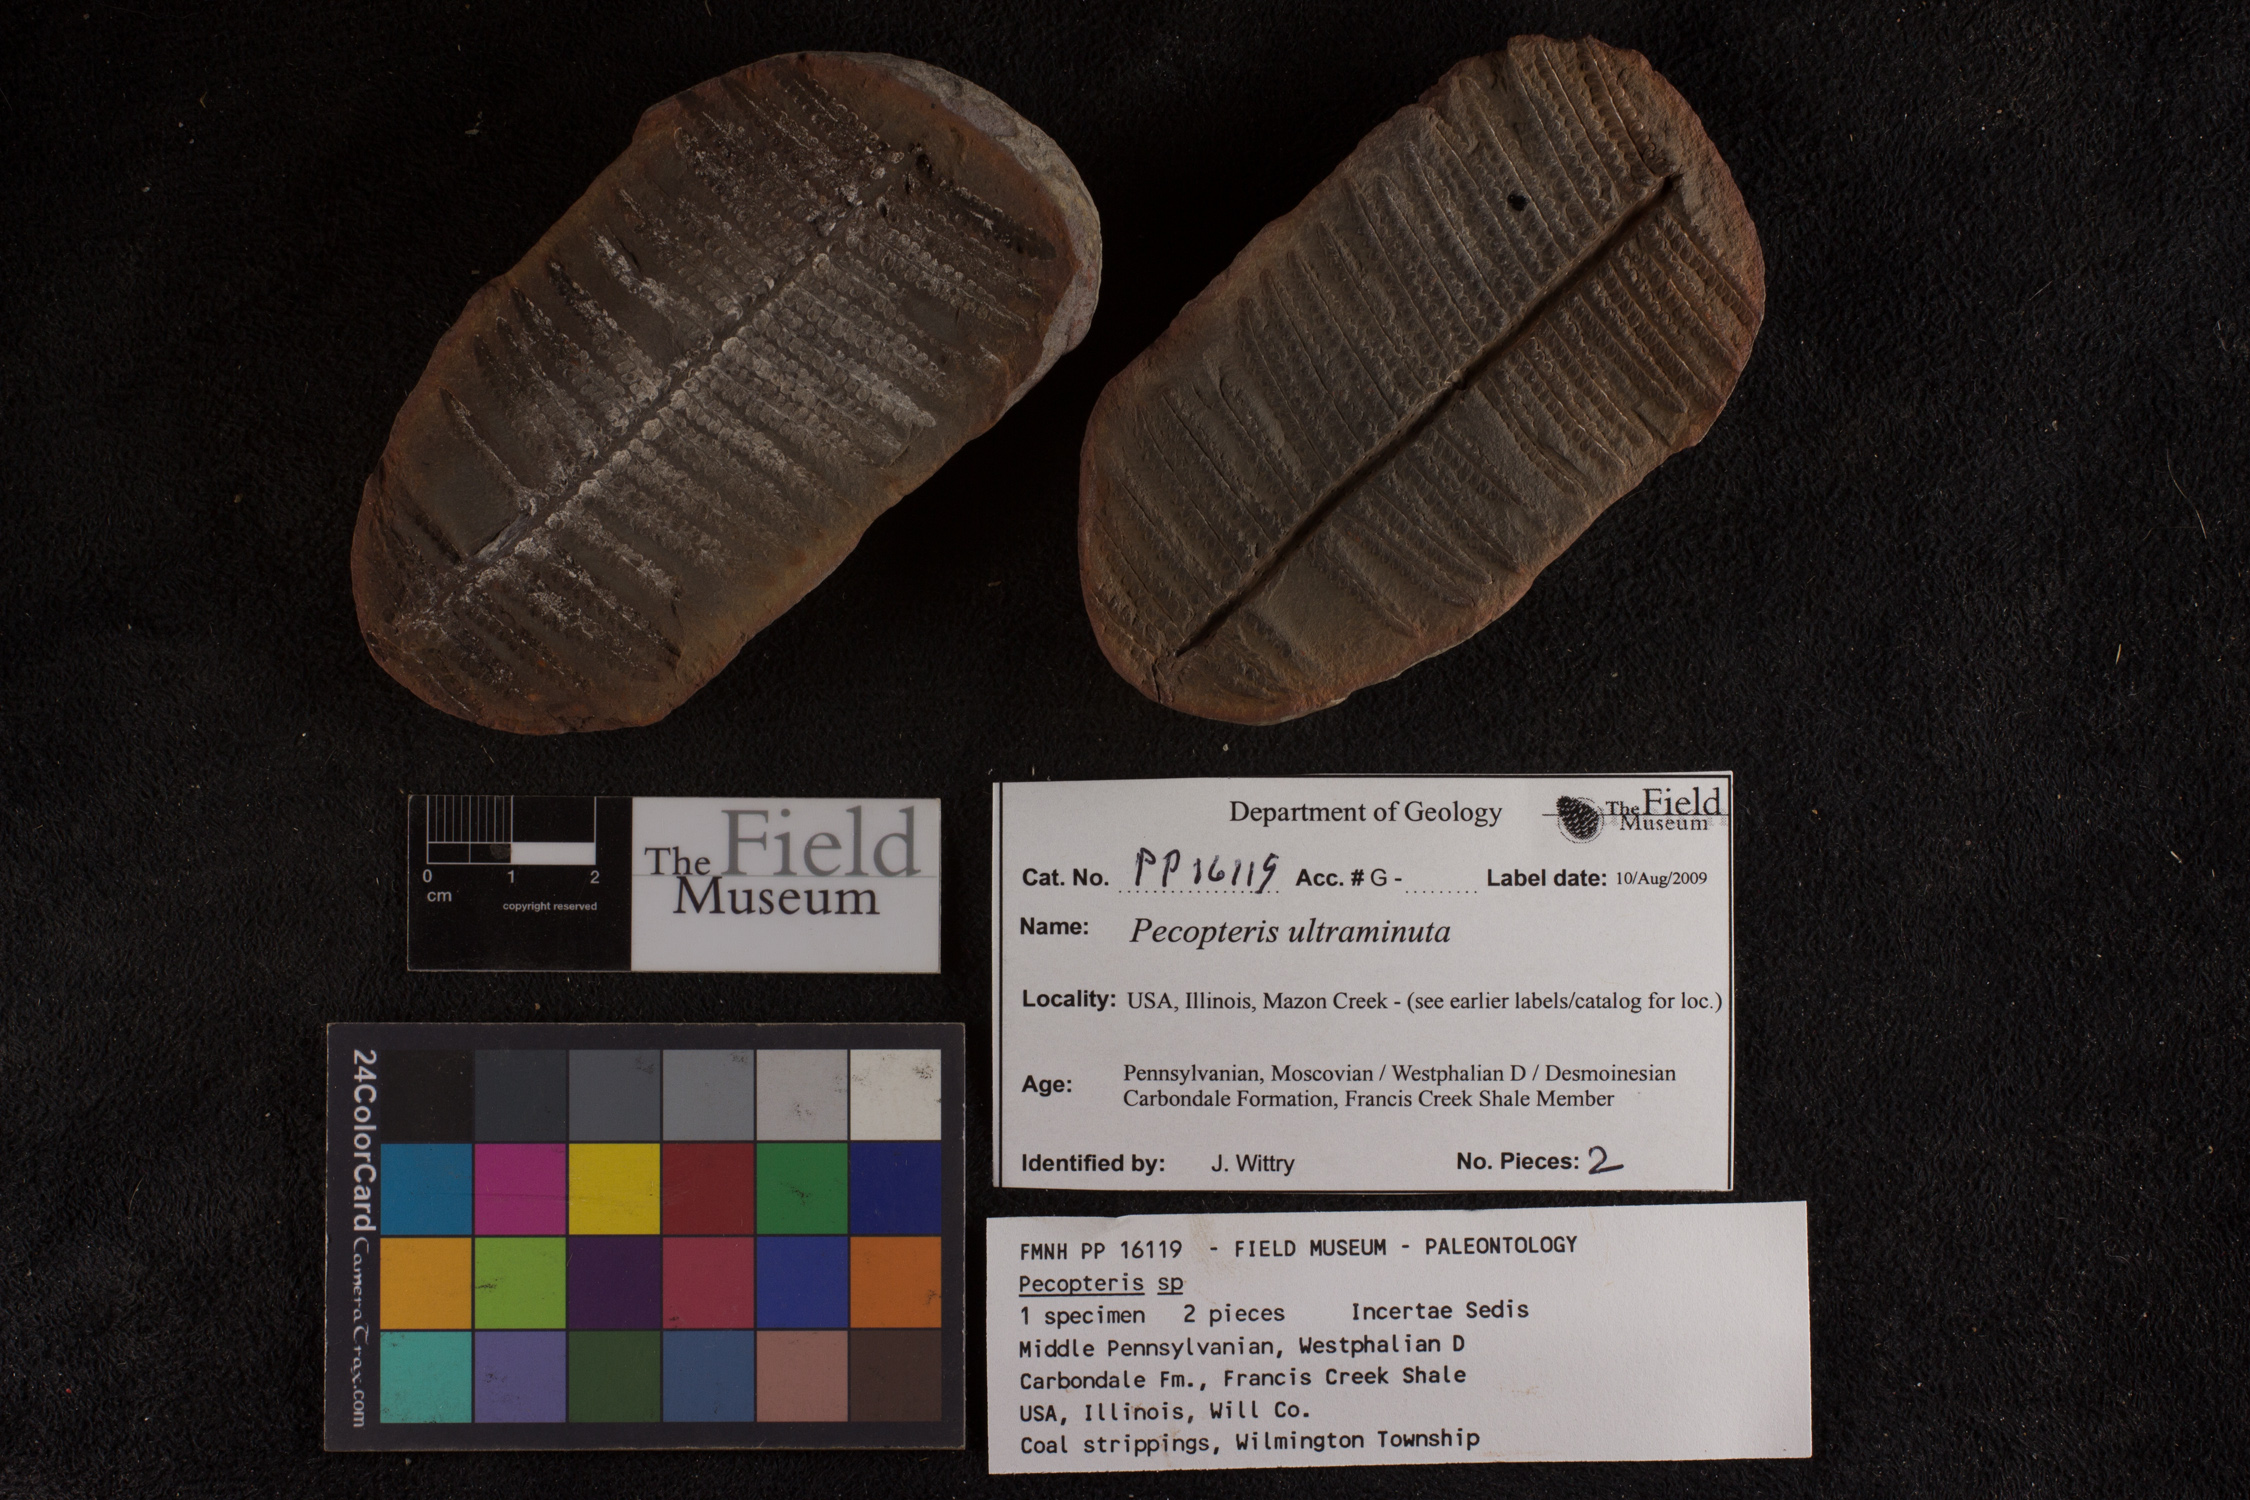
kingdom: Plantae
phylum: Tracheophyta
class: Polypodiopsida
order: Marattiales
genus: Cyathocarpus
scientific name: Cyathocarpus
